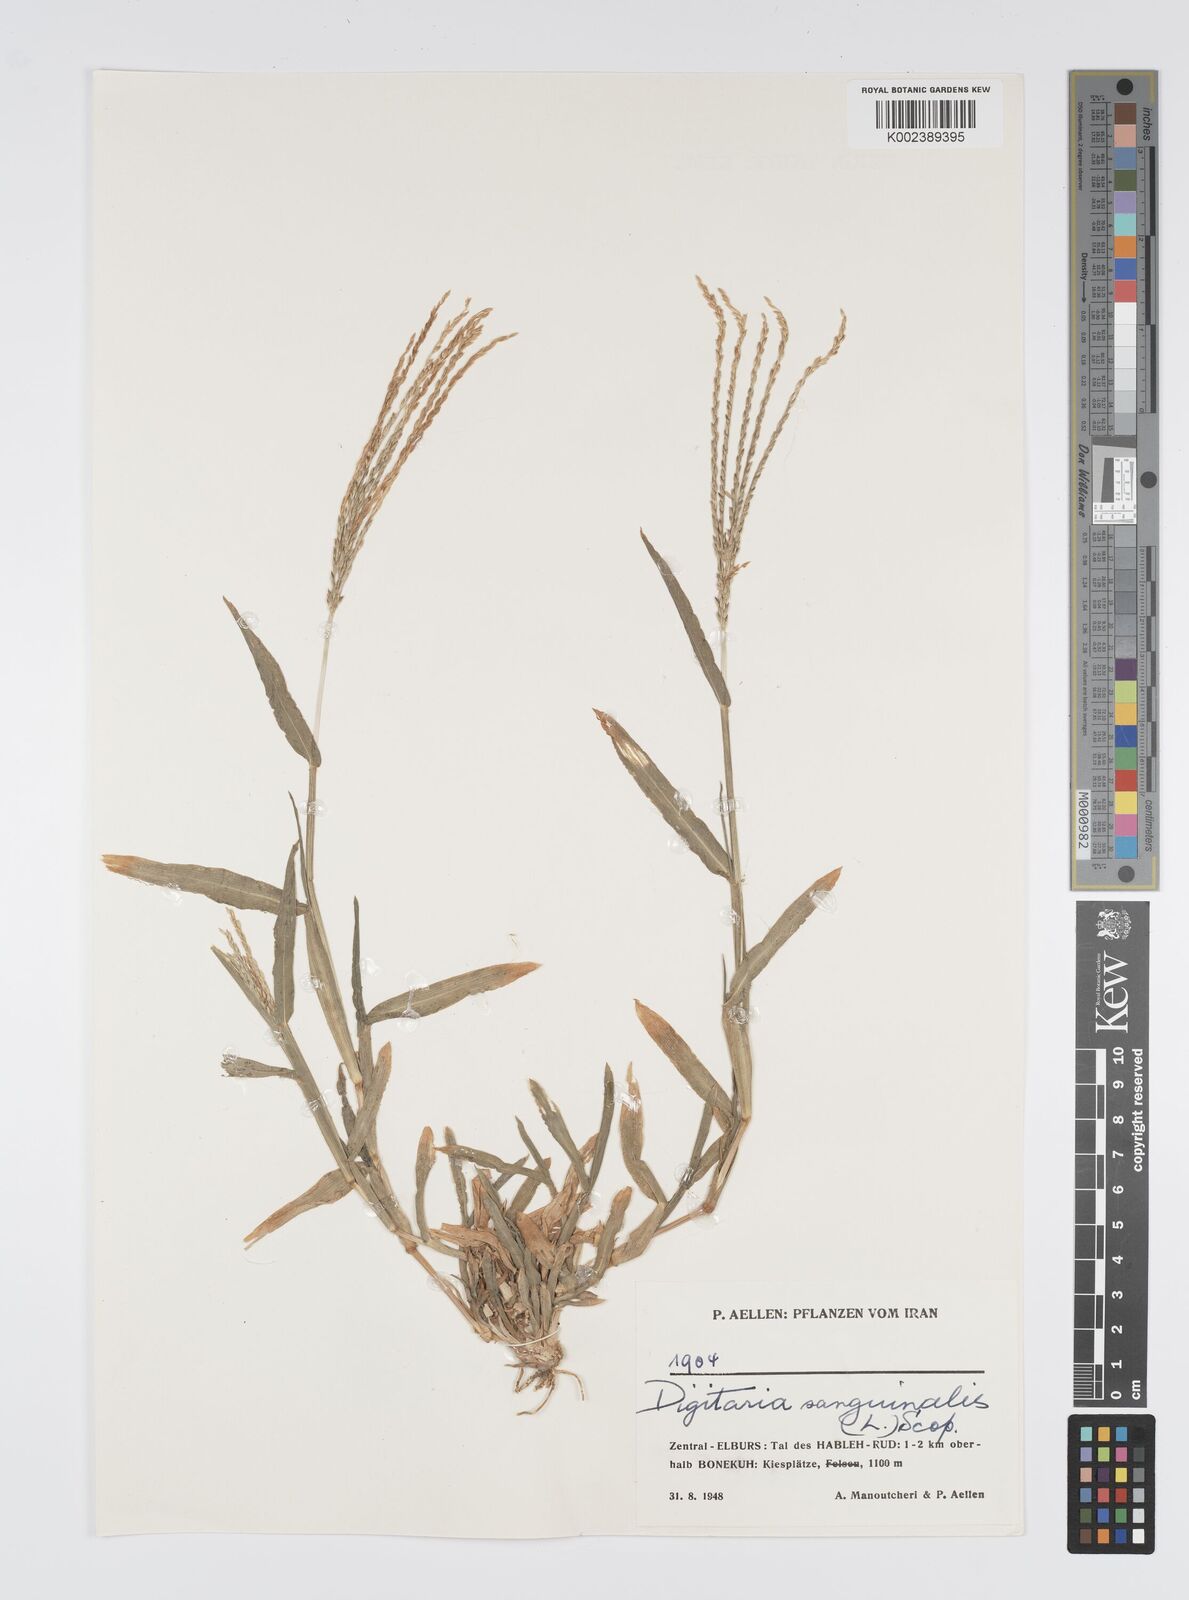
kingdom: Plantae
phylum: Tracheophyta
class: Liliopsida
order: Poales
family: Poaceae
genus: Digitaria
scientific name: Digitaria sanguinalis
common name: Hairy crabgrass
